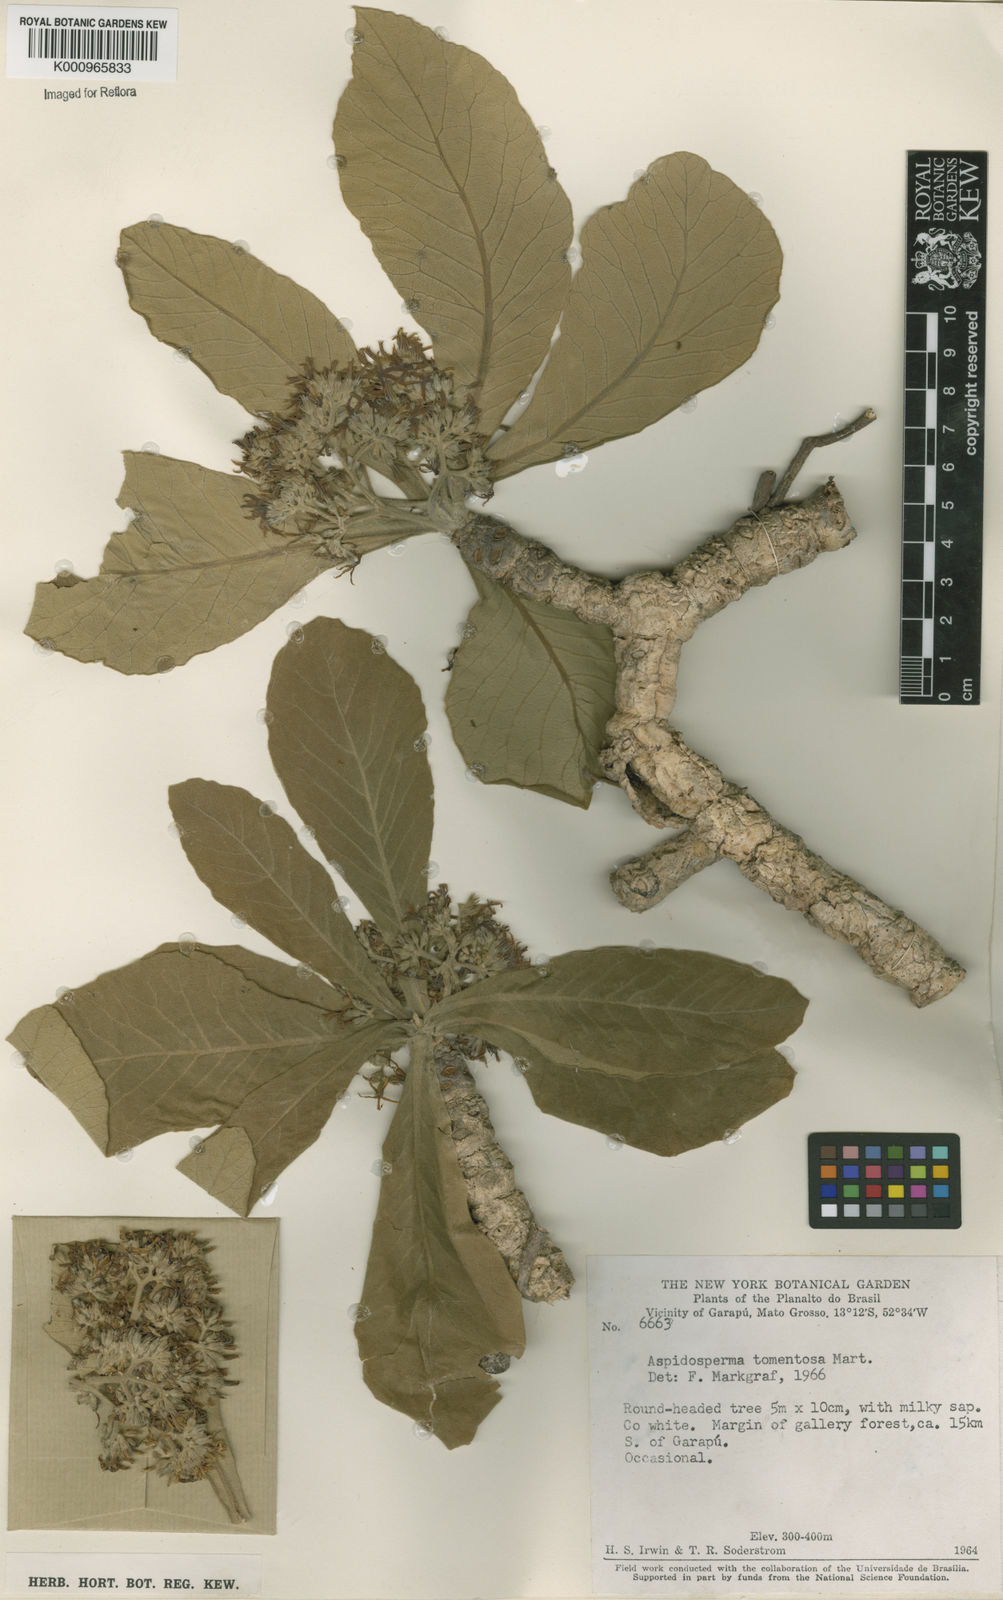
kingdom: Plantae
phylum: Tracheophyta
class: Magnoliopsida
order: Gentianales
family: Apocynaceae
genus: Aspidosperma
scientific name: Aspidosperma tomentosum
